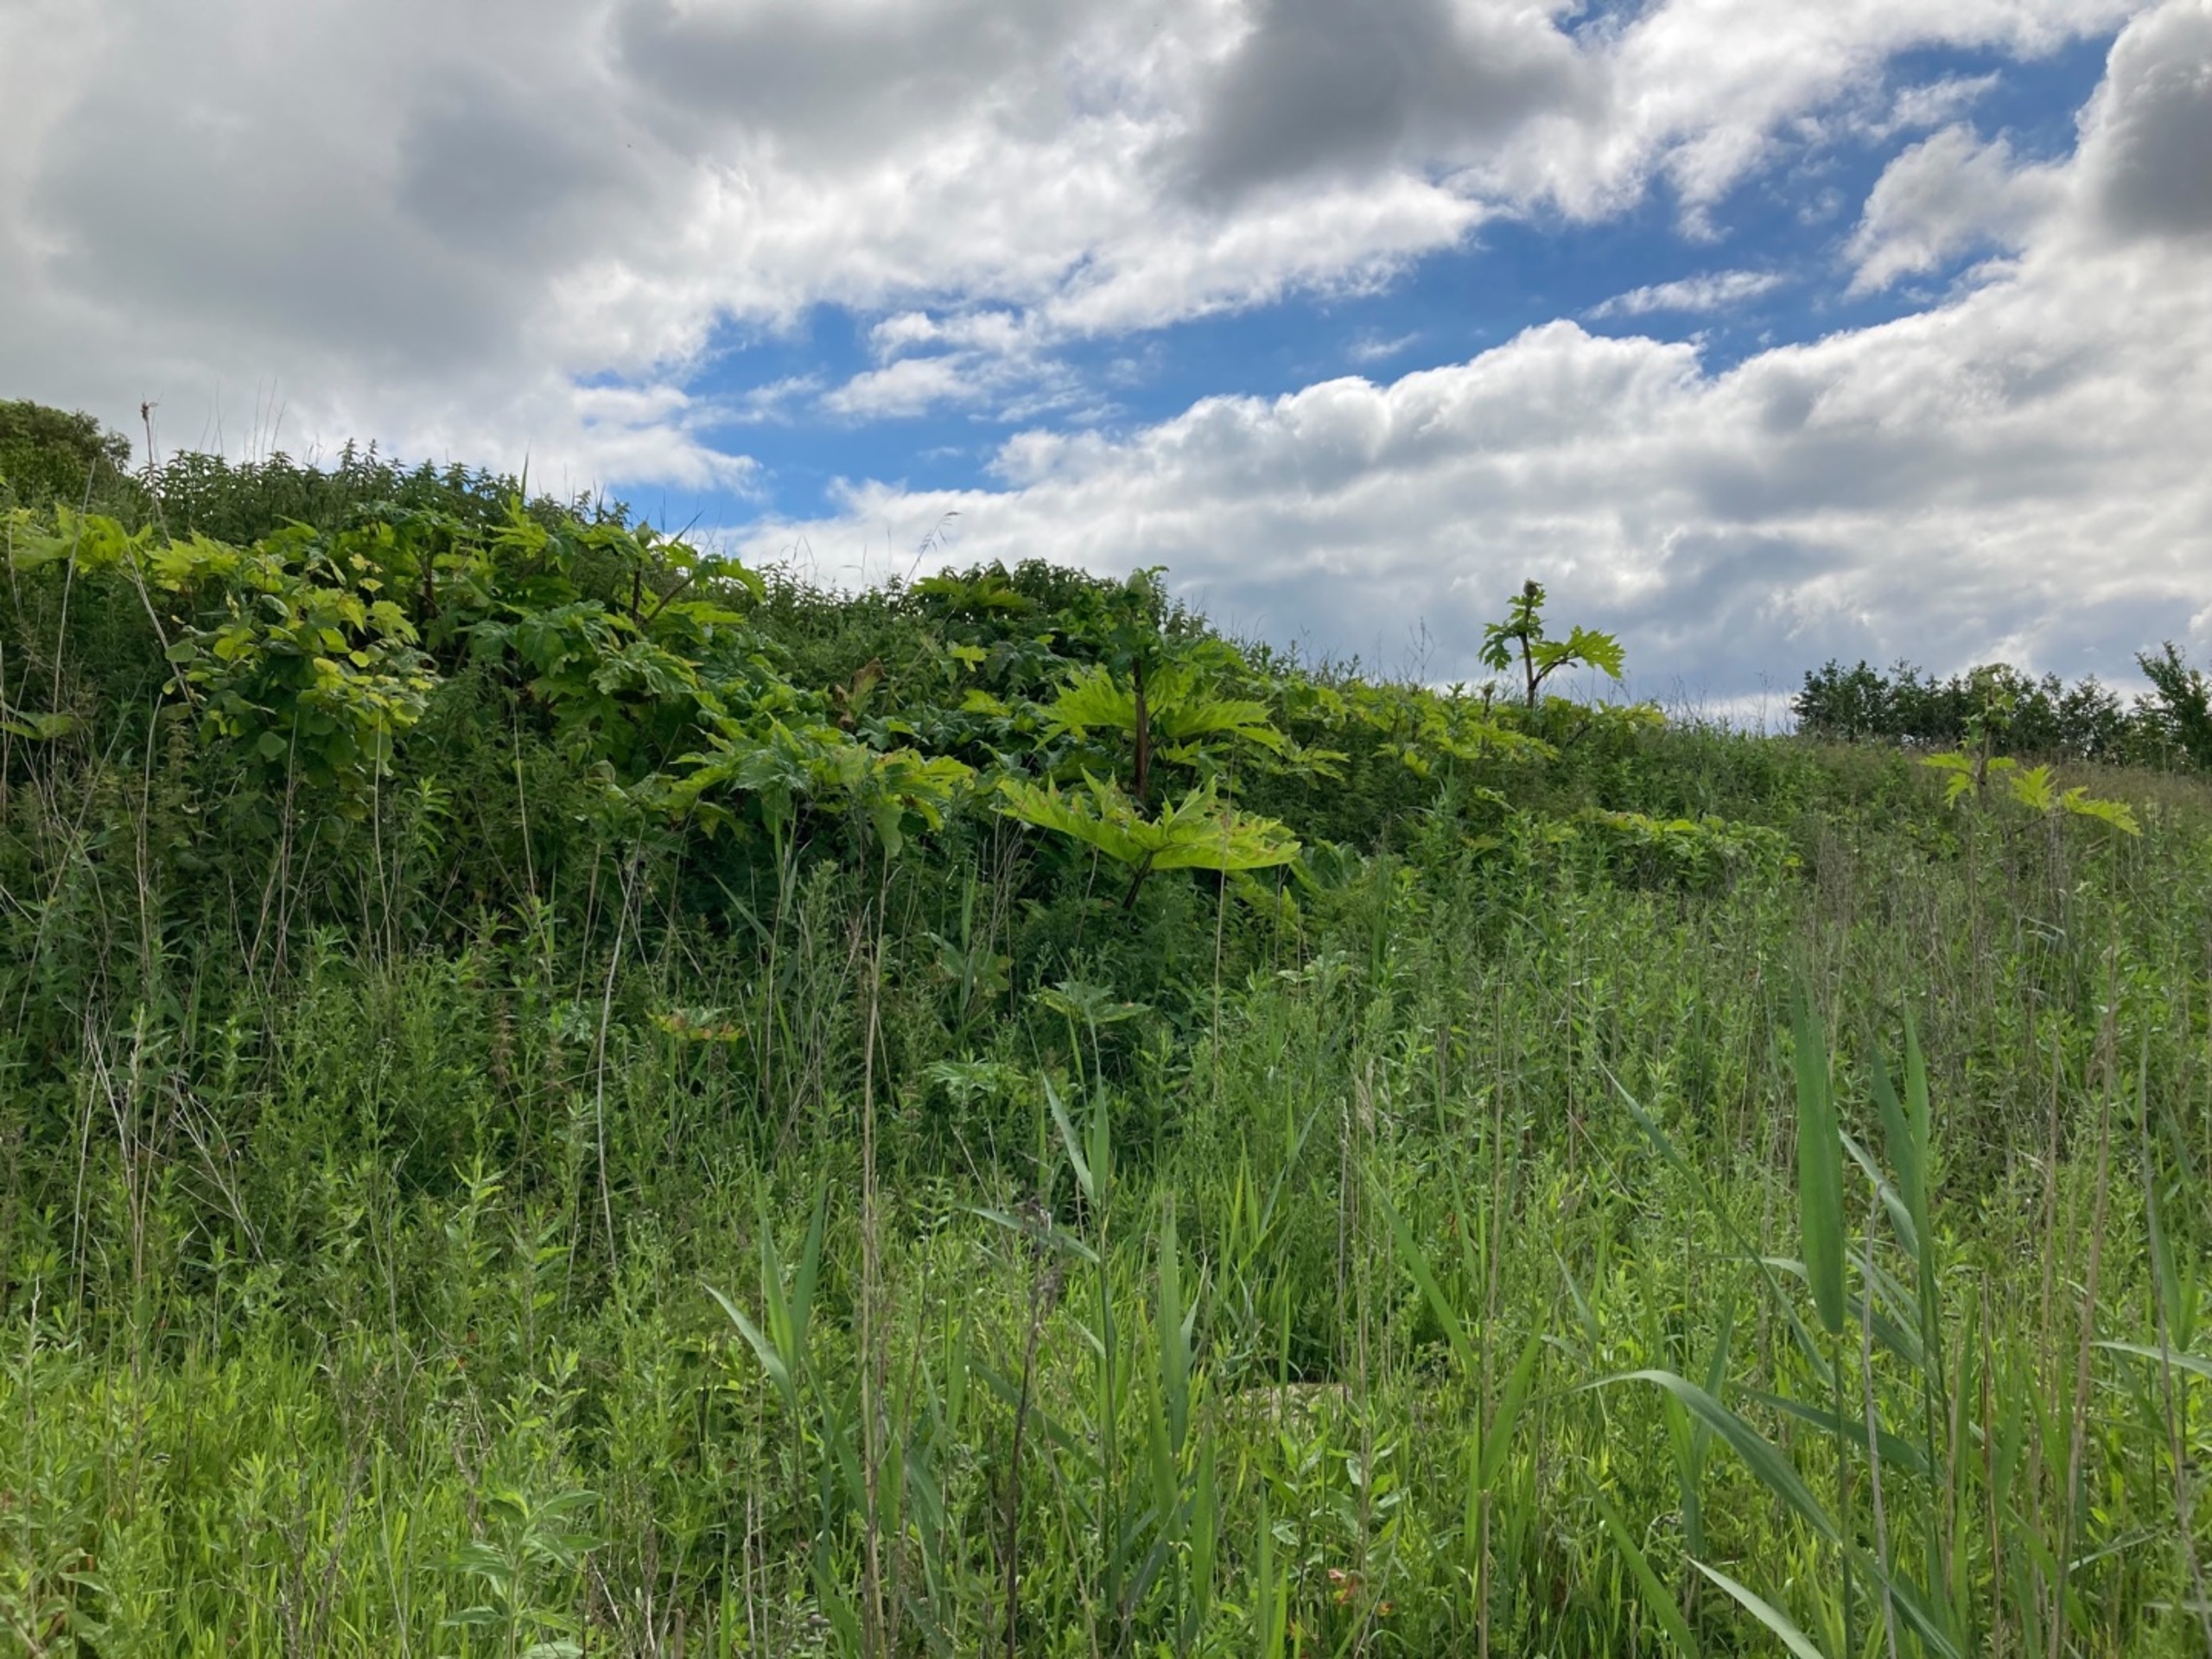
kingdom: Plantae
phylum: Tracheophyta
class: Magnoliopsida
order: Apiales
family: Apiaceae
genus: Heracleum
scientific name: Heracleum mantegazzianum
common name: Kæmpe-bjørneklo
